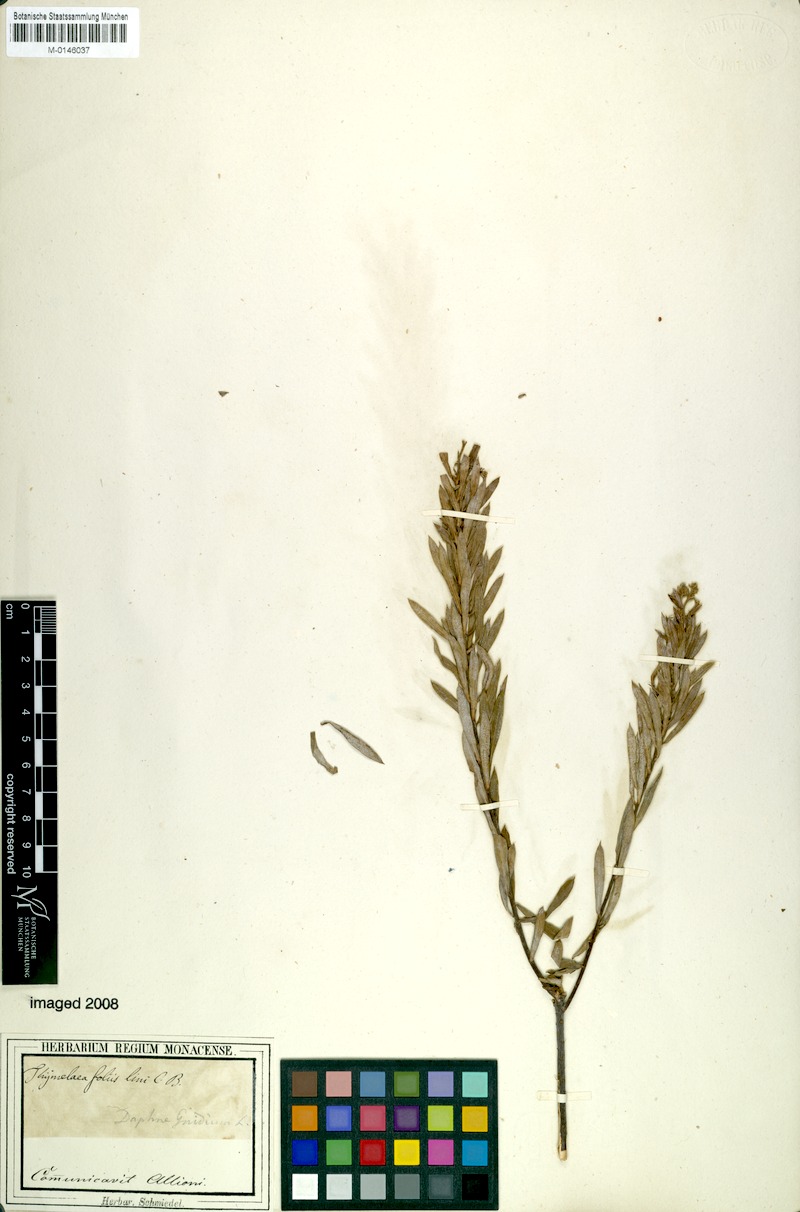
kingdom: Plantae
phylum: Tracheophyta
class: Magnoliopsida
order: Malvales
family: Thymelaeaceae
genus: Daphne
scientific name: Daphne gnidium
